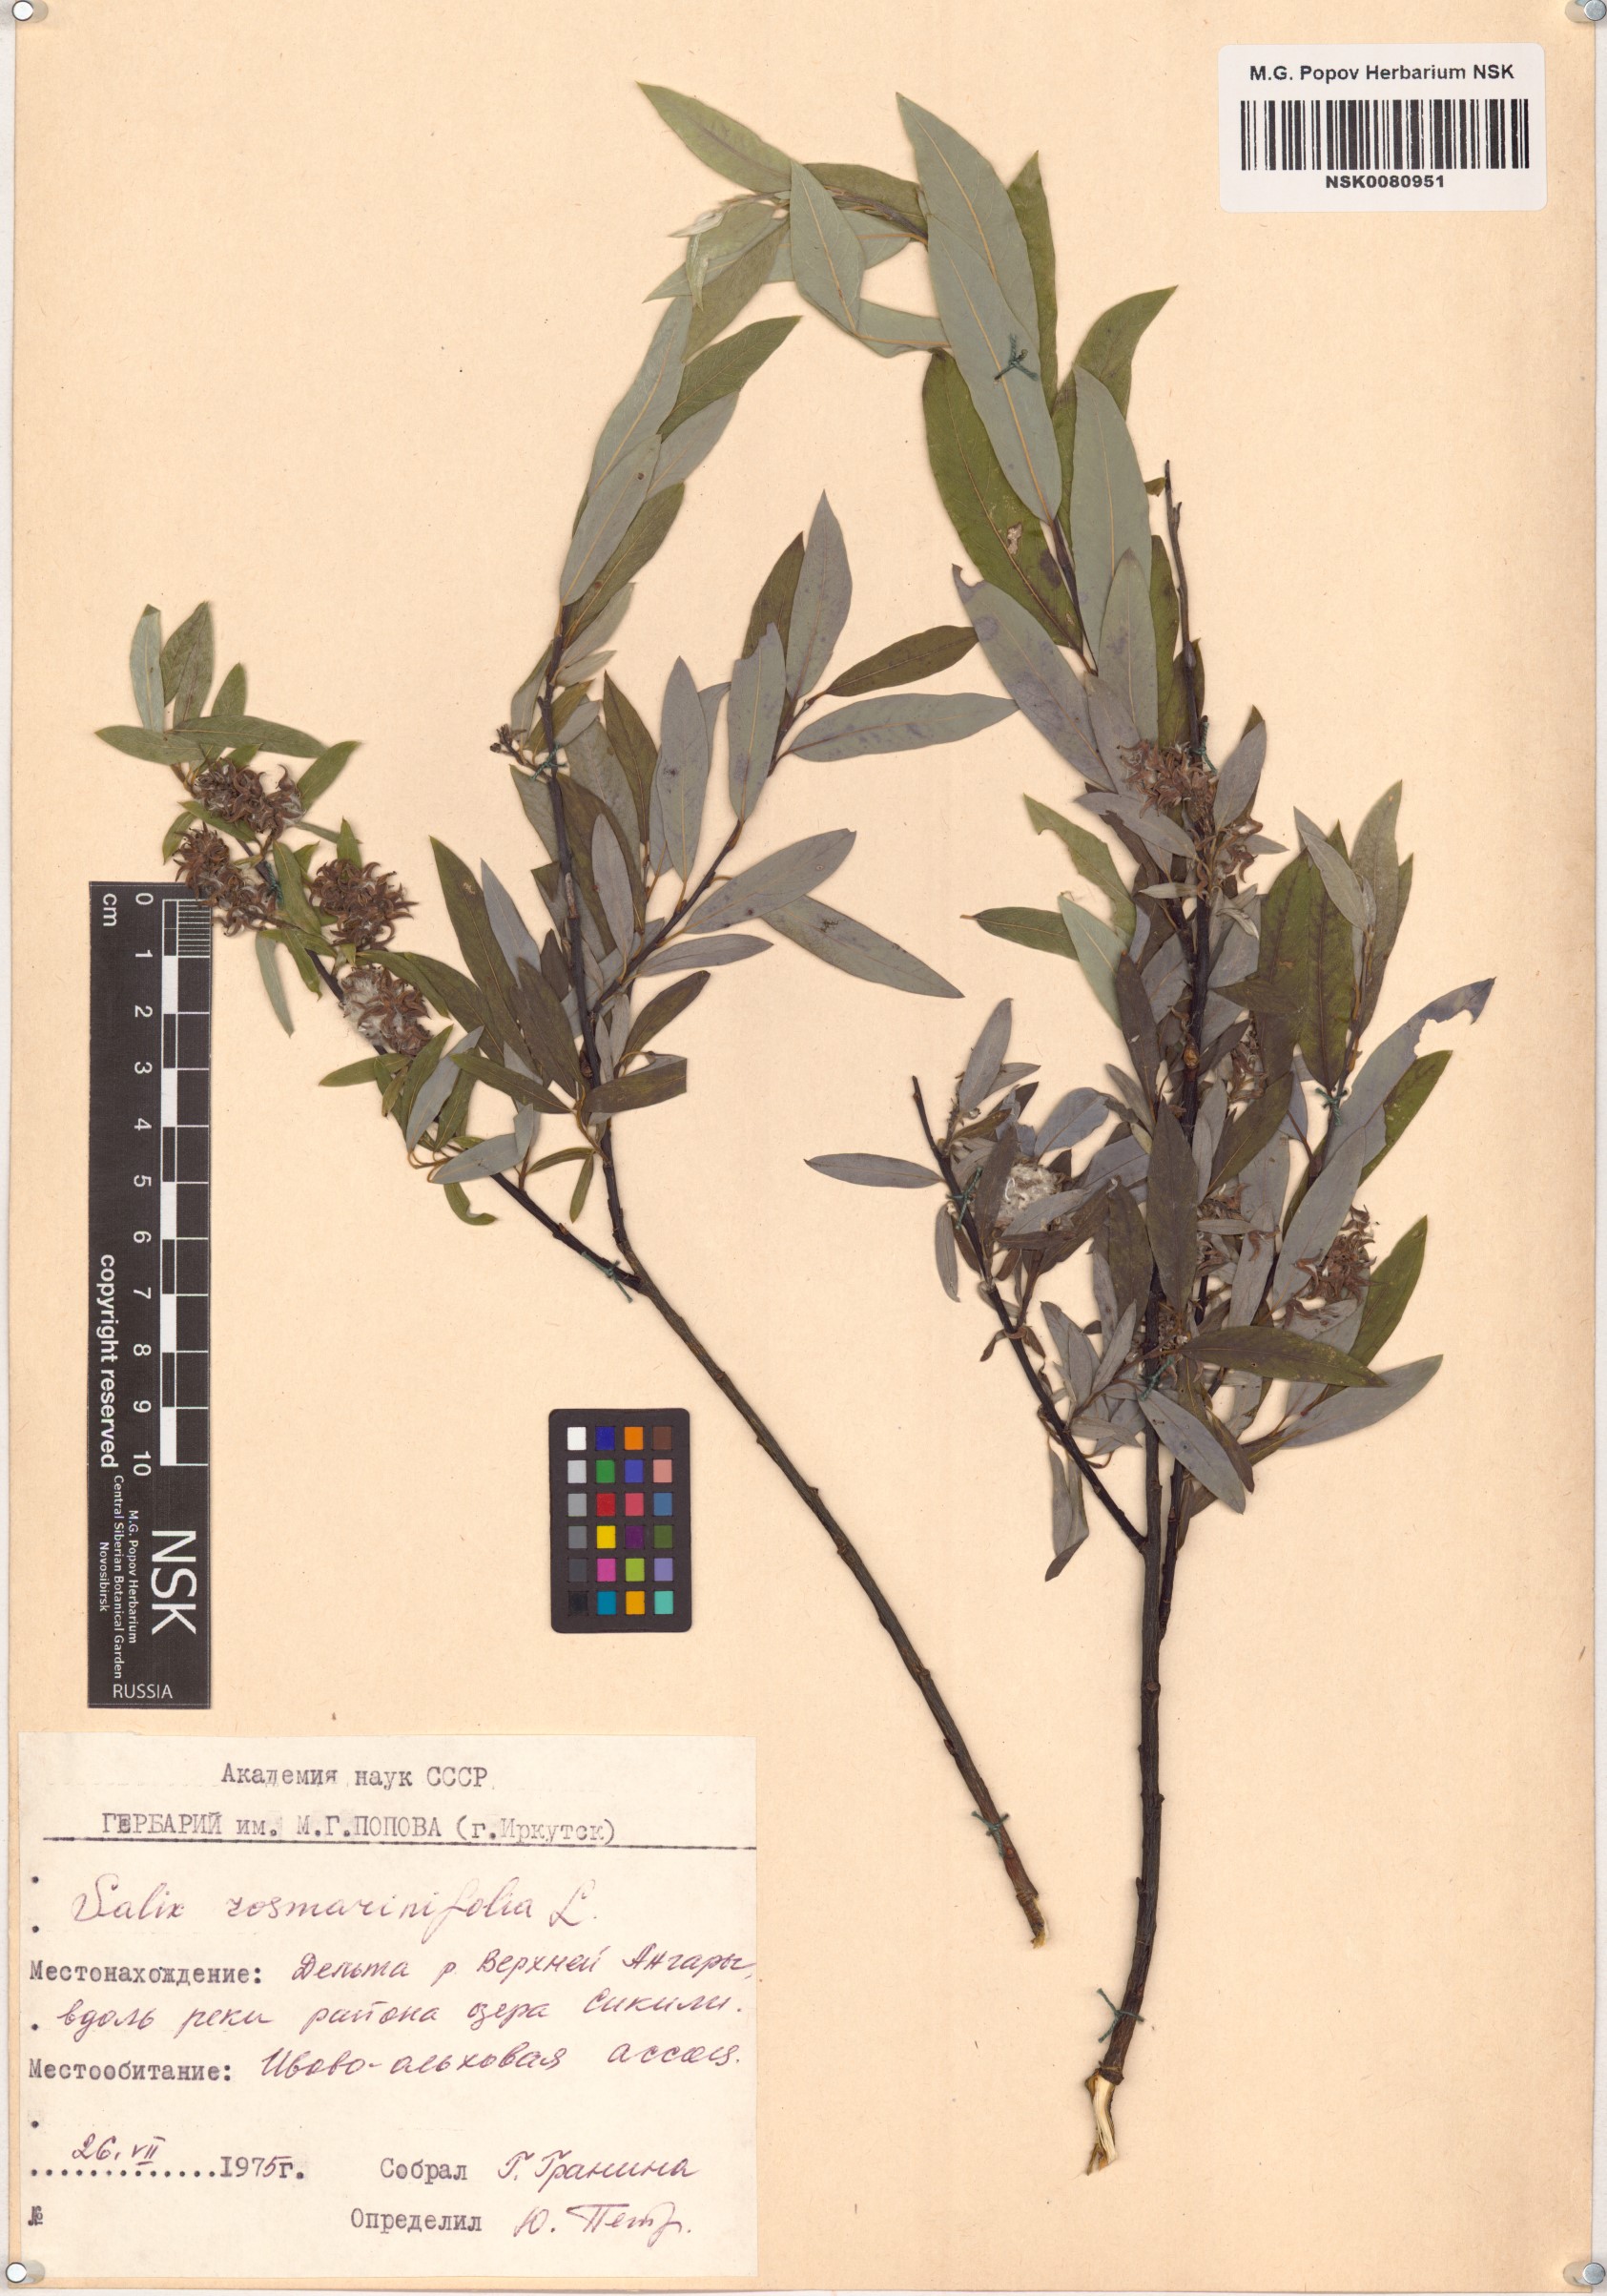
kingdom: Plantae
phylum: Tracheophyta
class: Magnoliopsida
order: Malpighiales
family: Salicaceae
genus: Salix
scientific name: Salix rosmarinifolia
